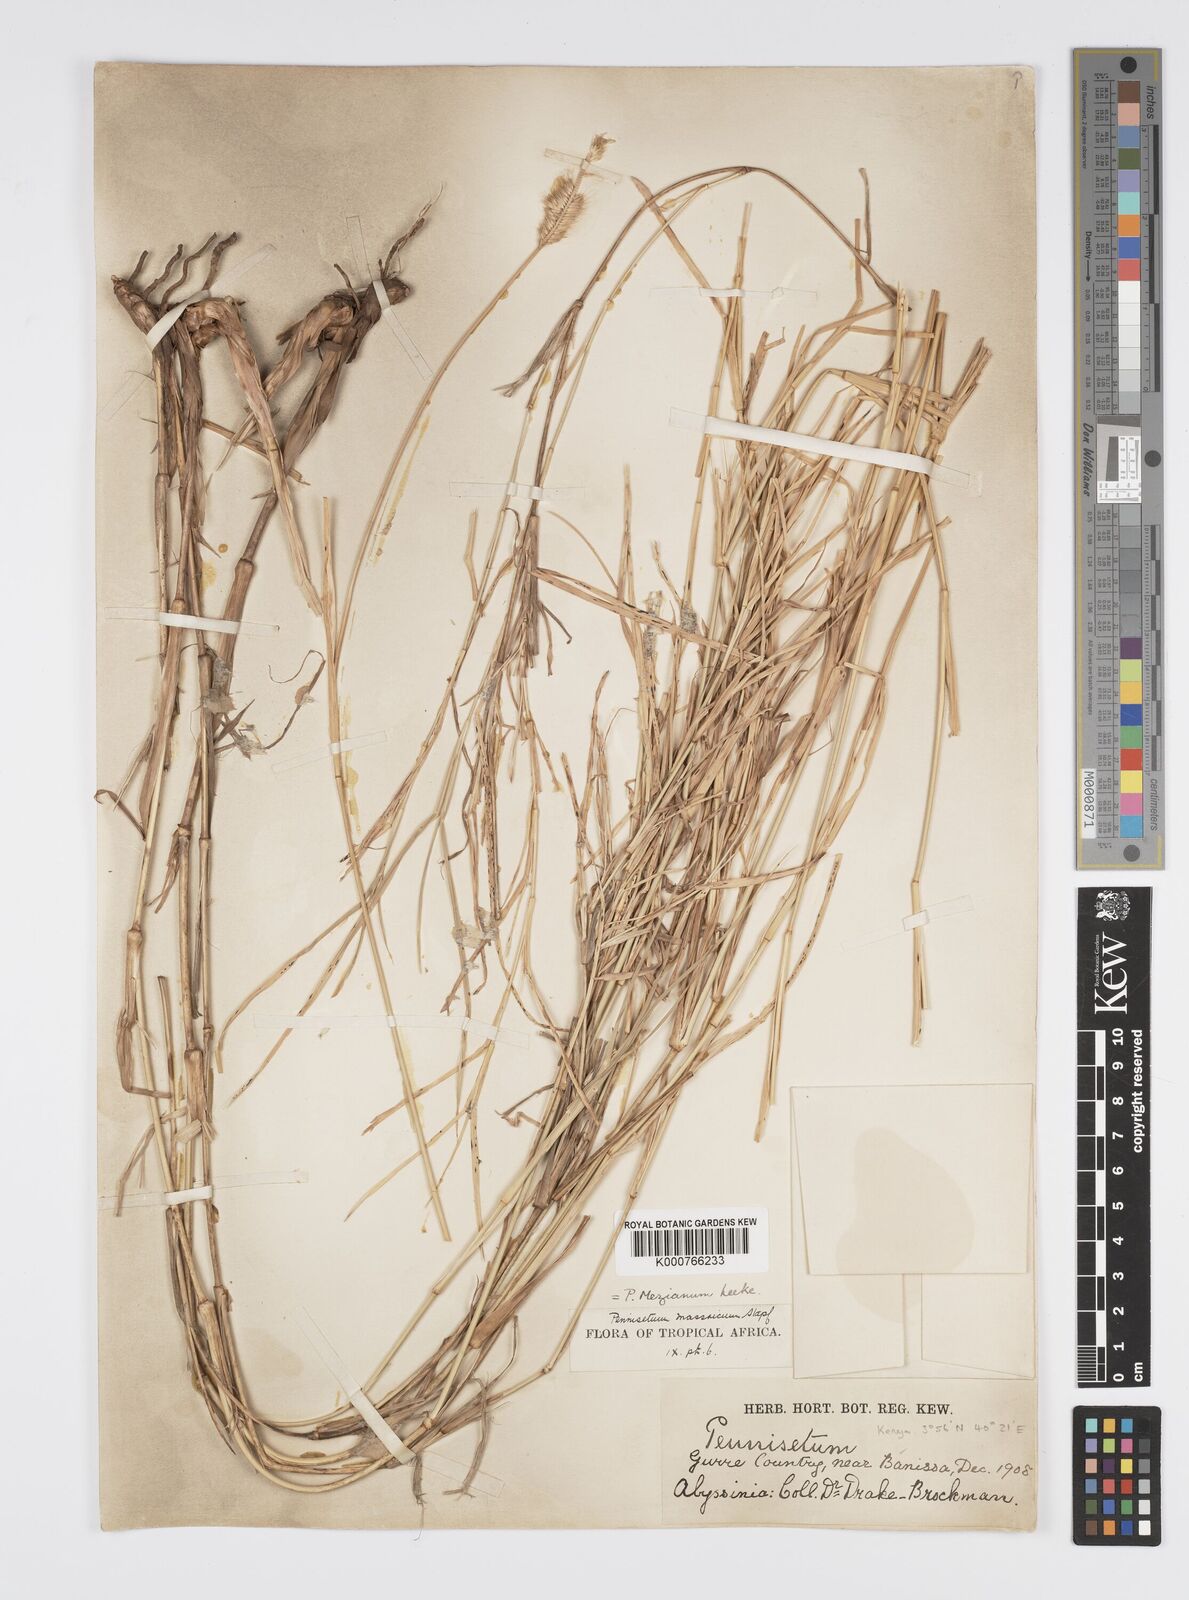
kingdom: Plantae
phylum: Tracheophyta
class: Liliopsida
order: Poales
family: Poaceae
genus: Cenchrus
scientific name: Cenchrus mezianus
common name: Bamboo grass
